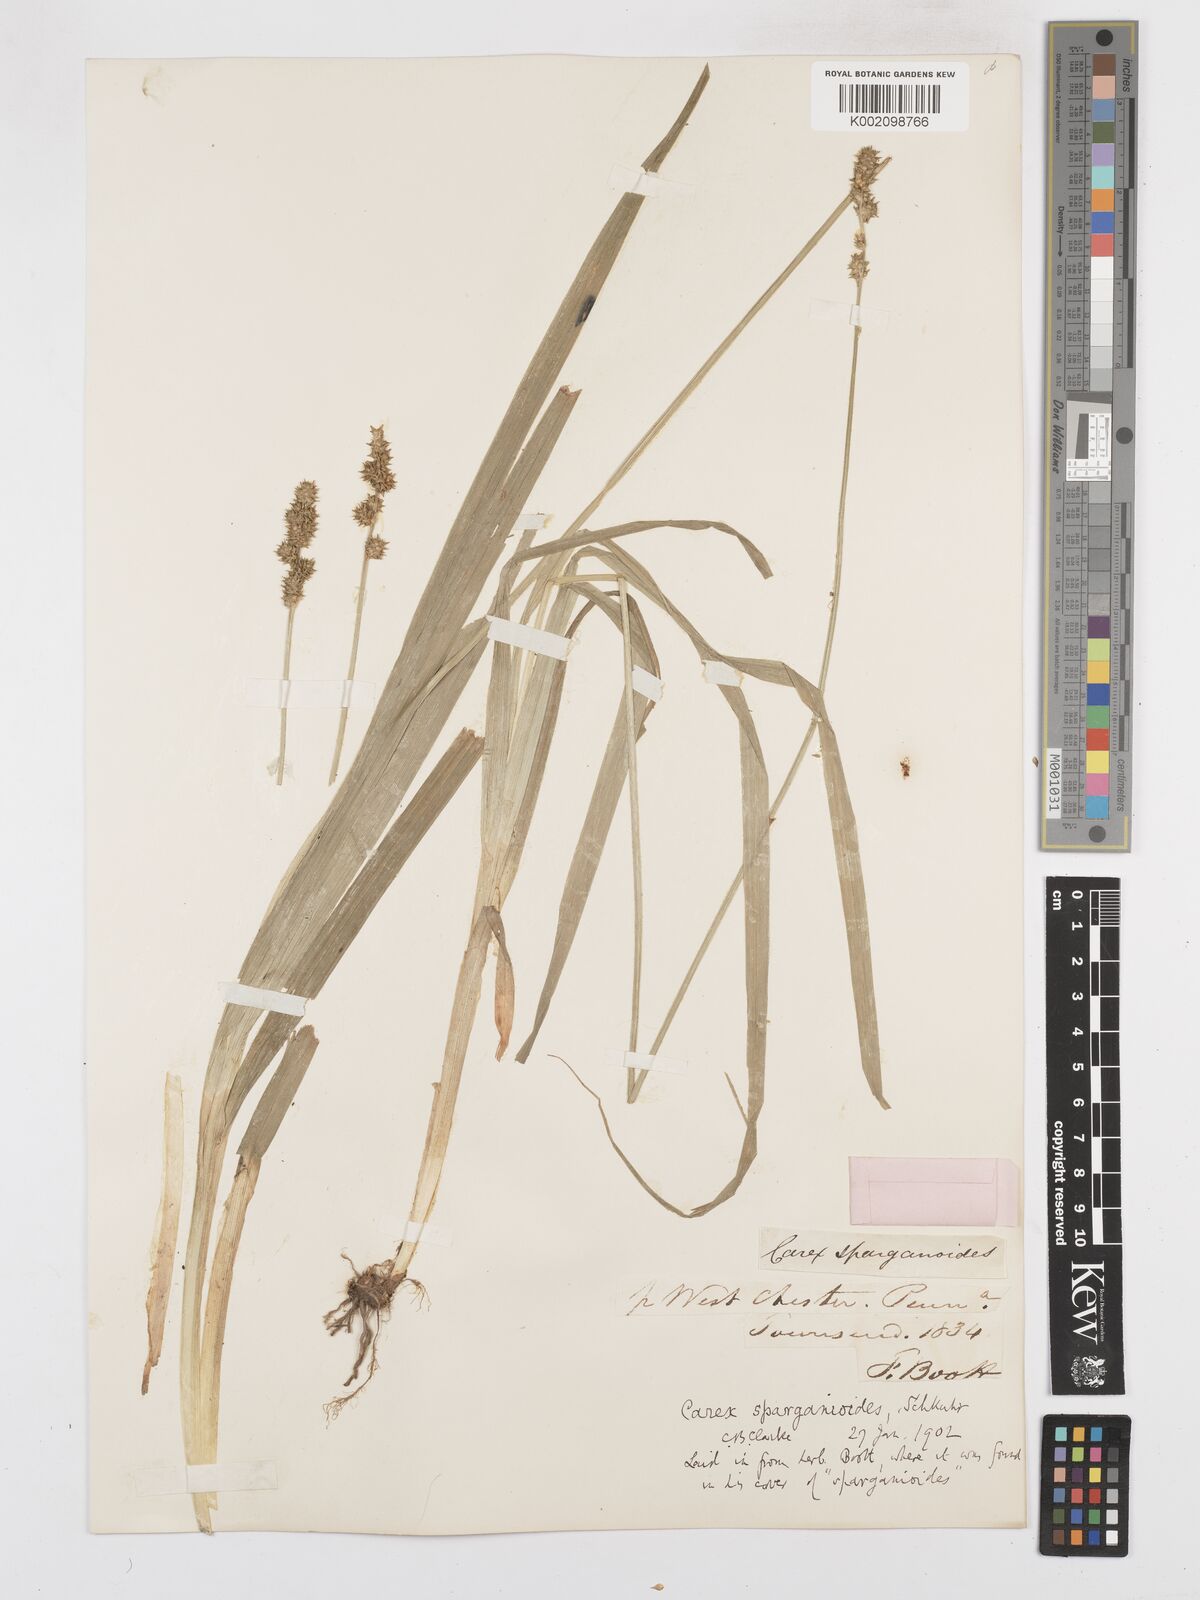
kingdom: Plantae
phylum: Tracheophyta
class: Liliopsida
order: Poales
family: Cyperaceae
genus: Carex
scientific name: Carex sparganioides
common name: Burreed sedge
